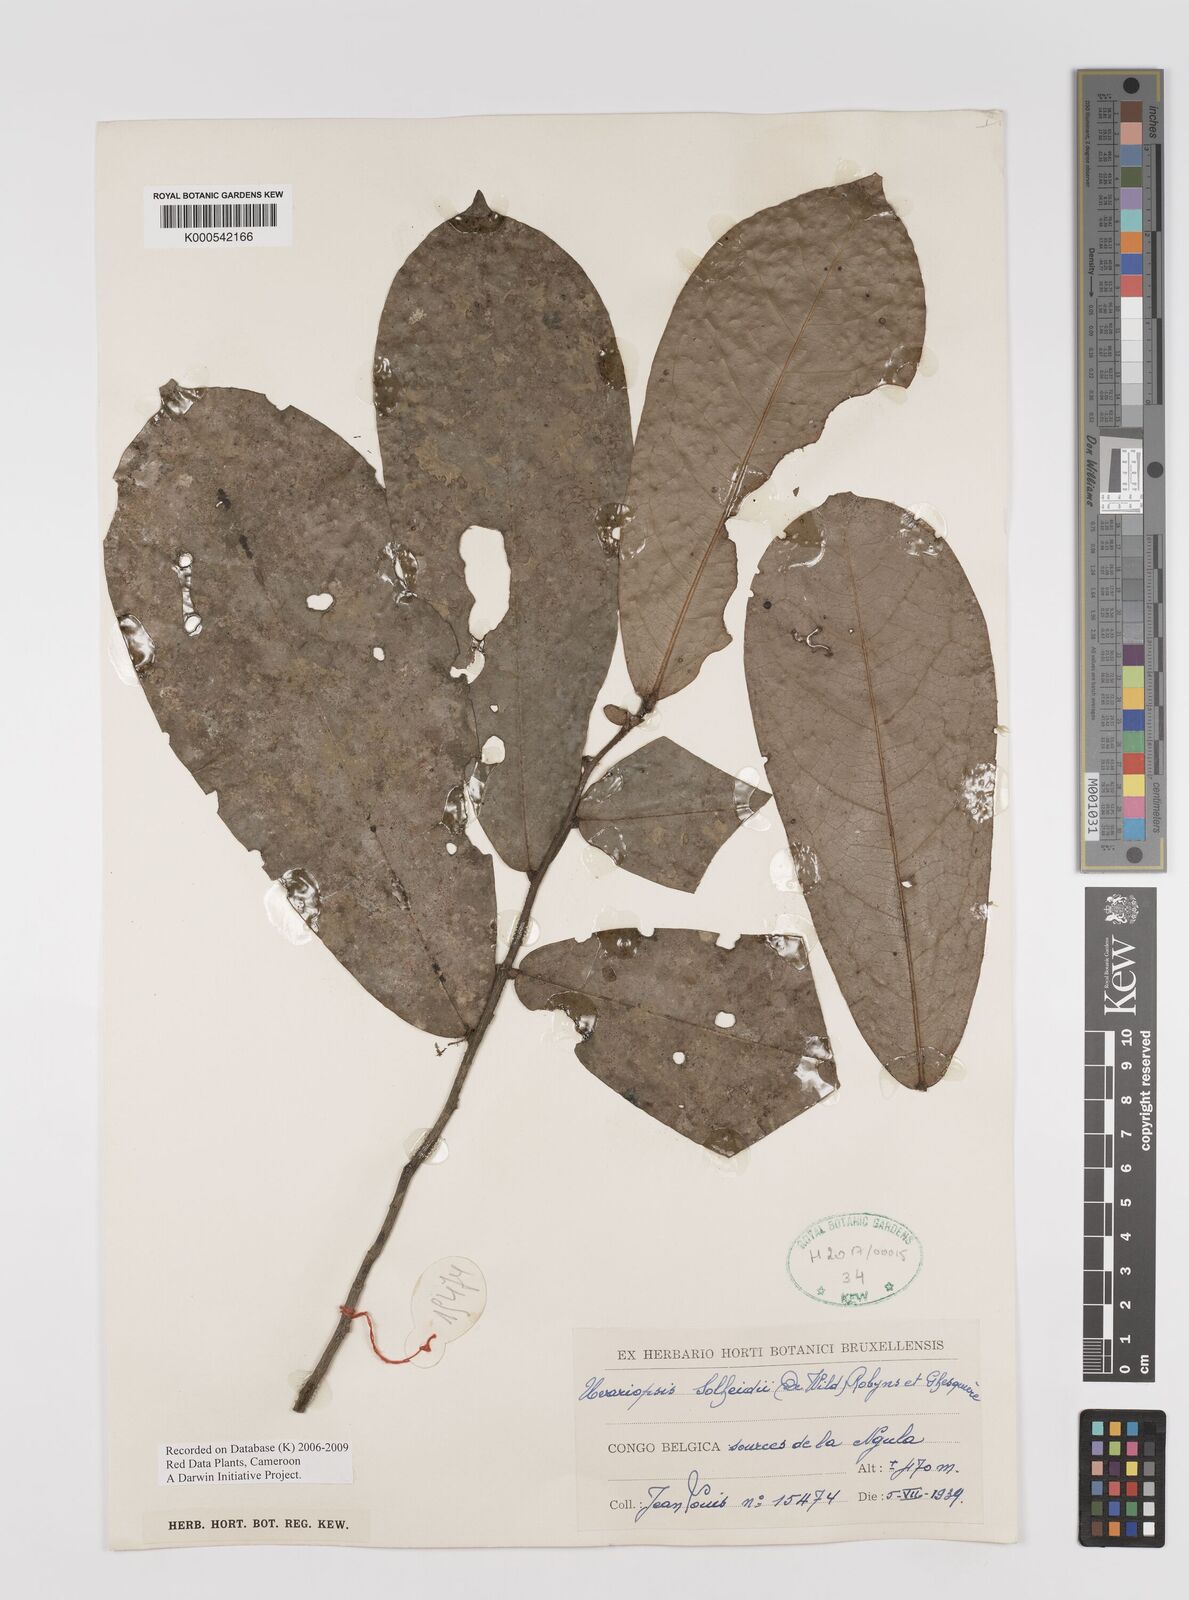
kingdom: Plantae
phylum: Tracheophyta
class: Magnoliopsida
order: Magnoliales
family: Annonaceae
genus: Uvariopsis
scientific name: Uvariopsis solheidii
